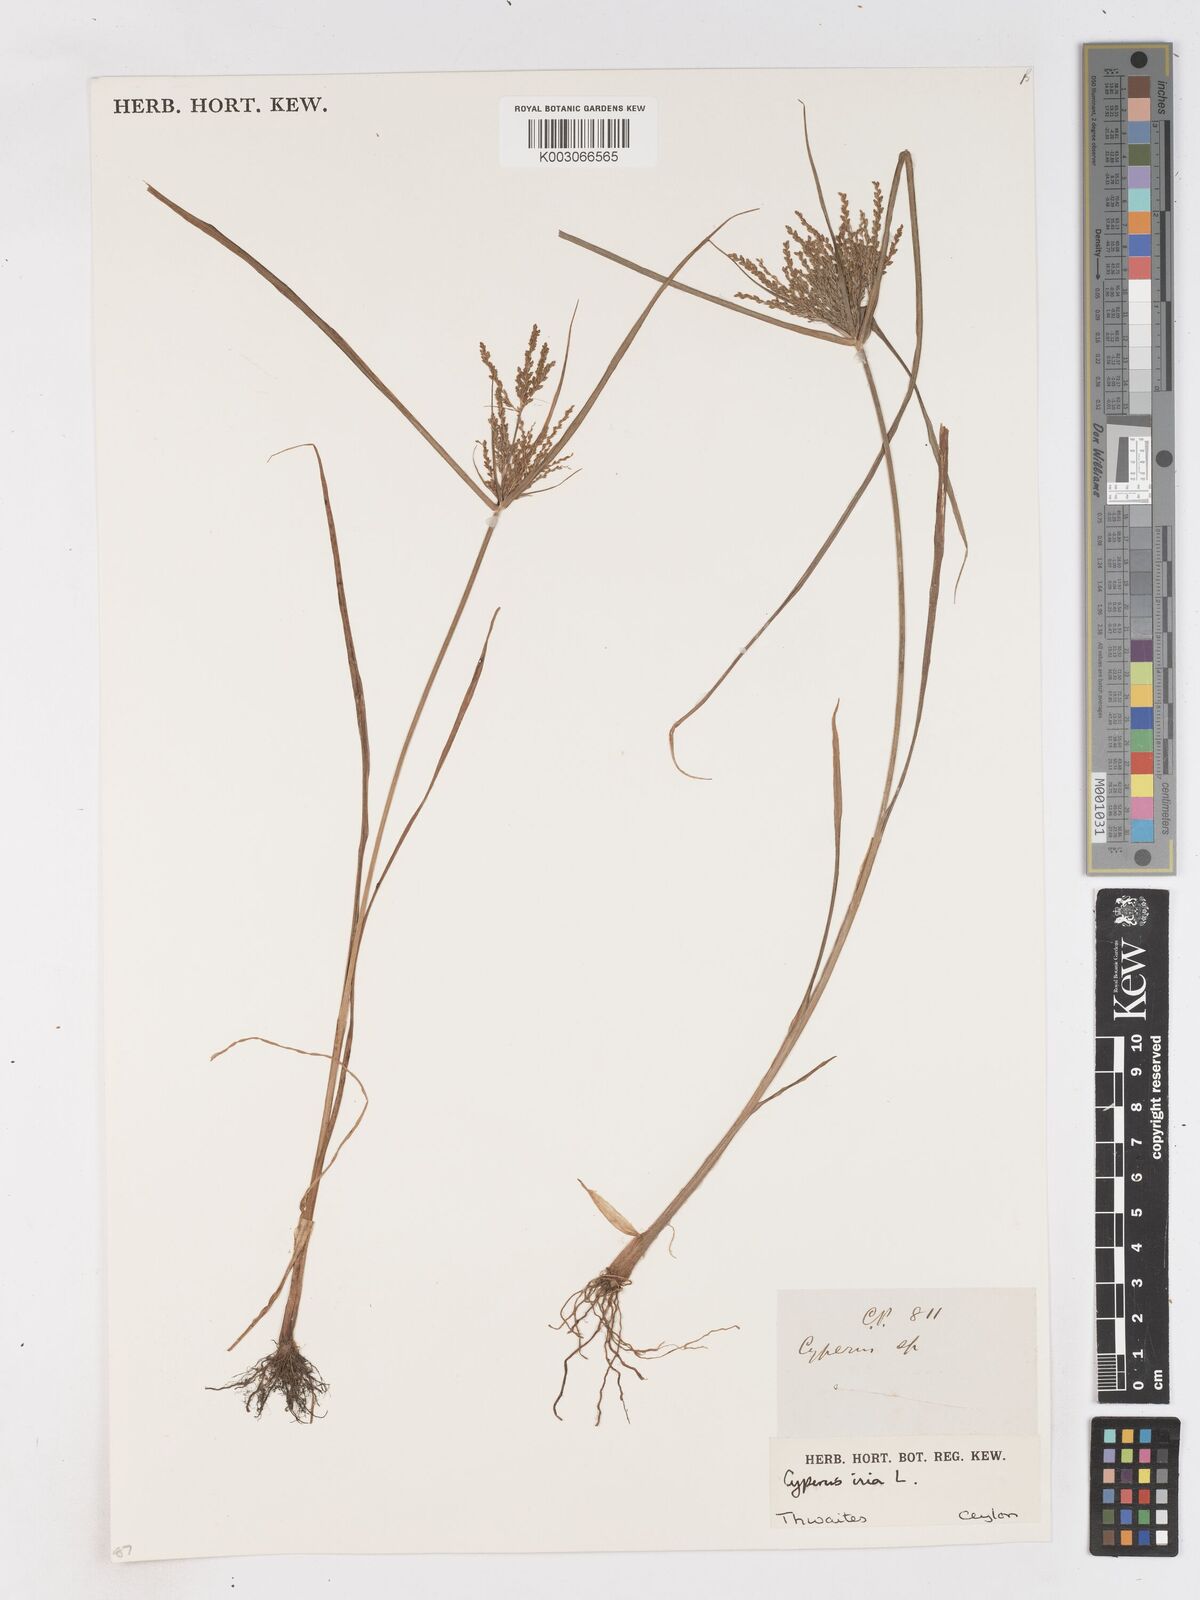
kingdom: Plantae
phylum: Tracheophyta
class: Liliopsida
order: Poales
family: Cyperaceae
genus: Cyperus
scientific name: Cyperus iria
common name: Ricefield flatsedge
